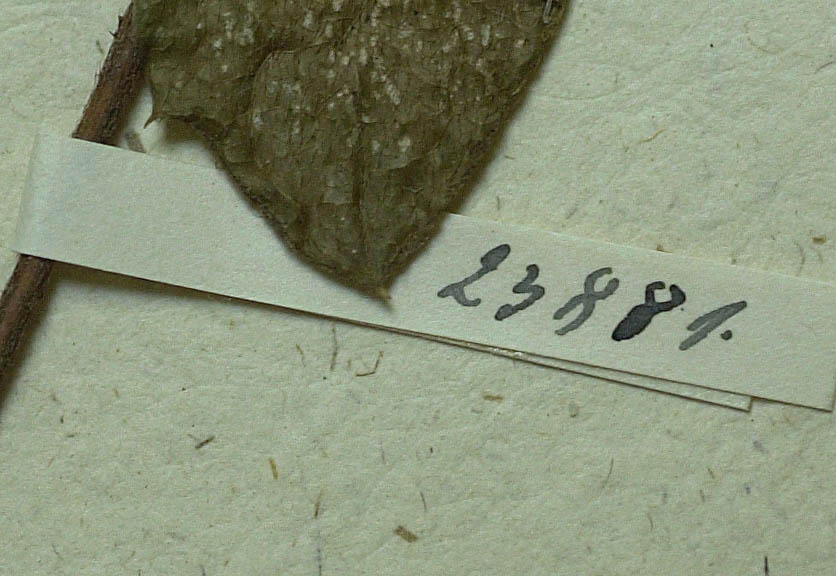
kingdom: Plantae
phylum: Tracheophyta
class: Magnoliopsida
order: Asterales
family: Asteraceae
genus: Pertya
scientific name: Pertya scandens
